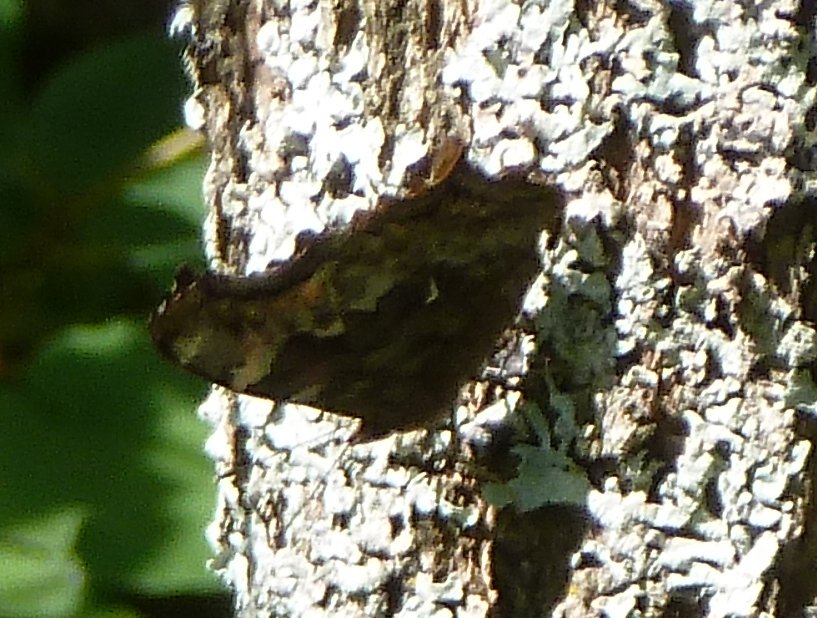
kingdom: Animalia
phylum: Arthropoda
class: Insecta
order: Lepidoptera
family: Nymphalidae
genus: Polygonia
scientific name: Polygonia vaualbum
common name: Compton Tortoiseshell
